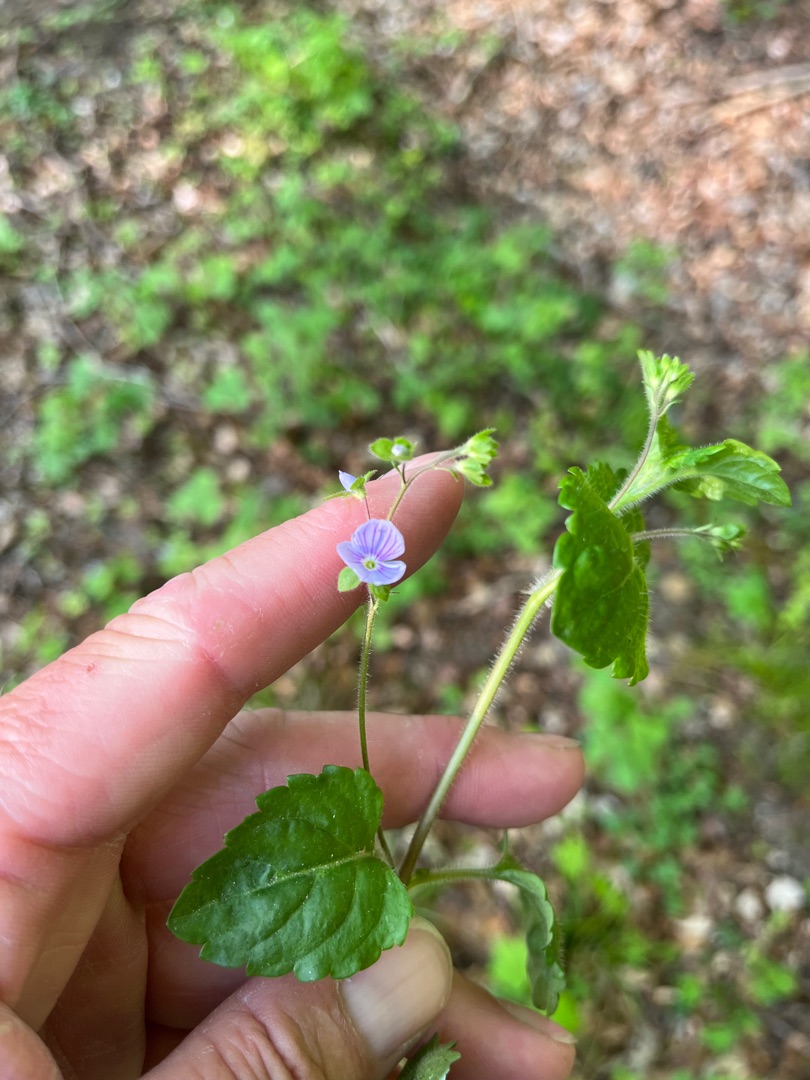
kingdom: Plantae
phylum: Tracheophyta
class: Magnoliopsida
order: Lamiales
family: Plantaginaceae
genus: Veronica
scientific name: Veronica montana
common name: Bjerg-ærenpris
